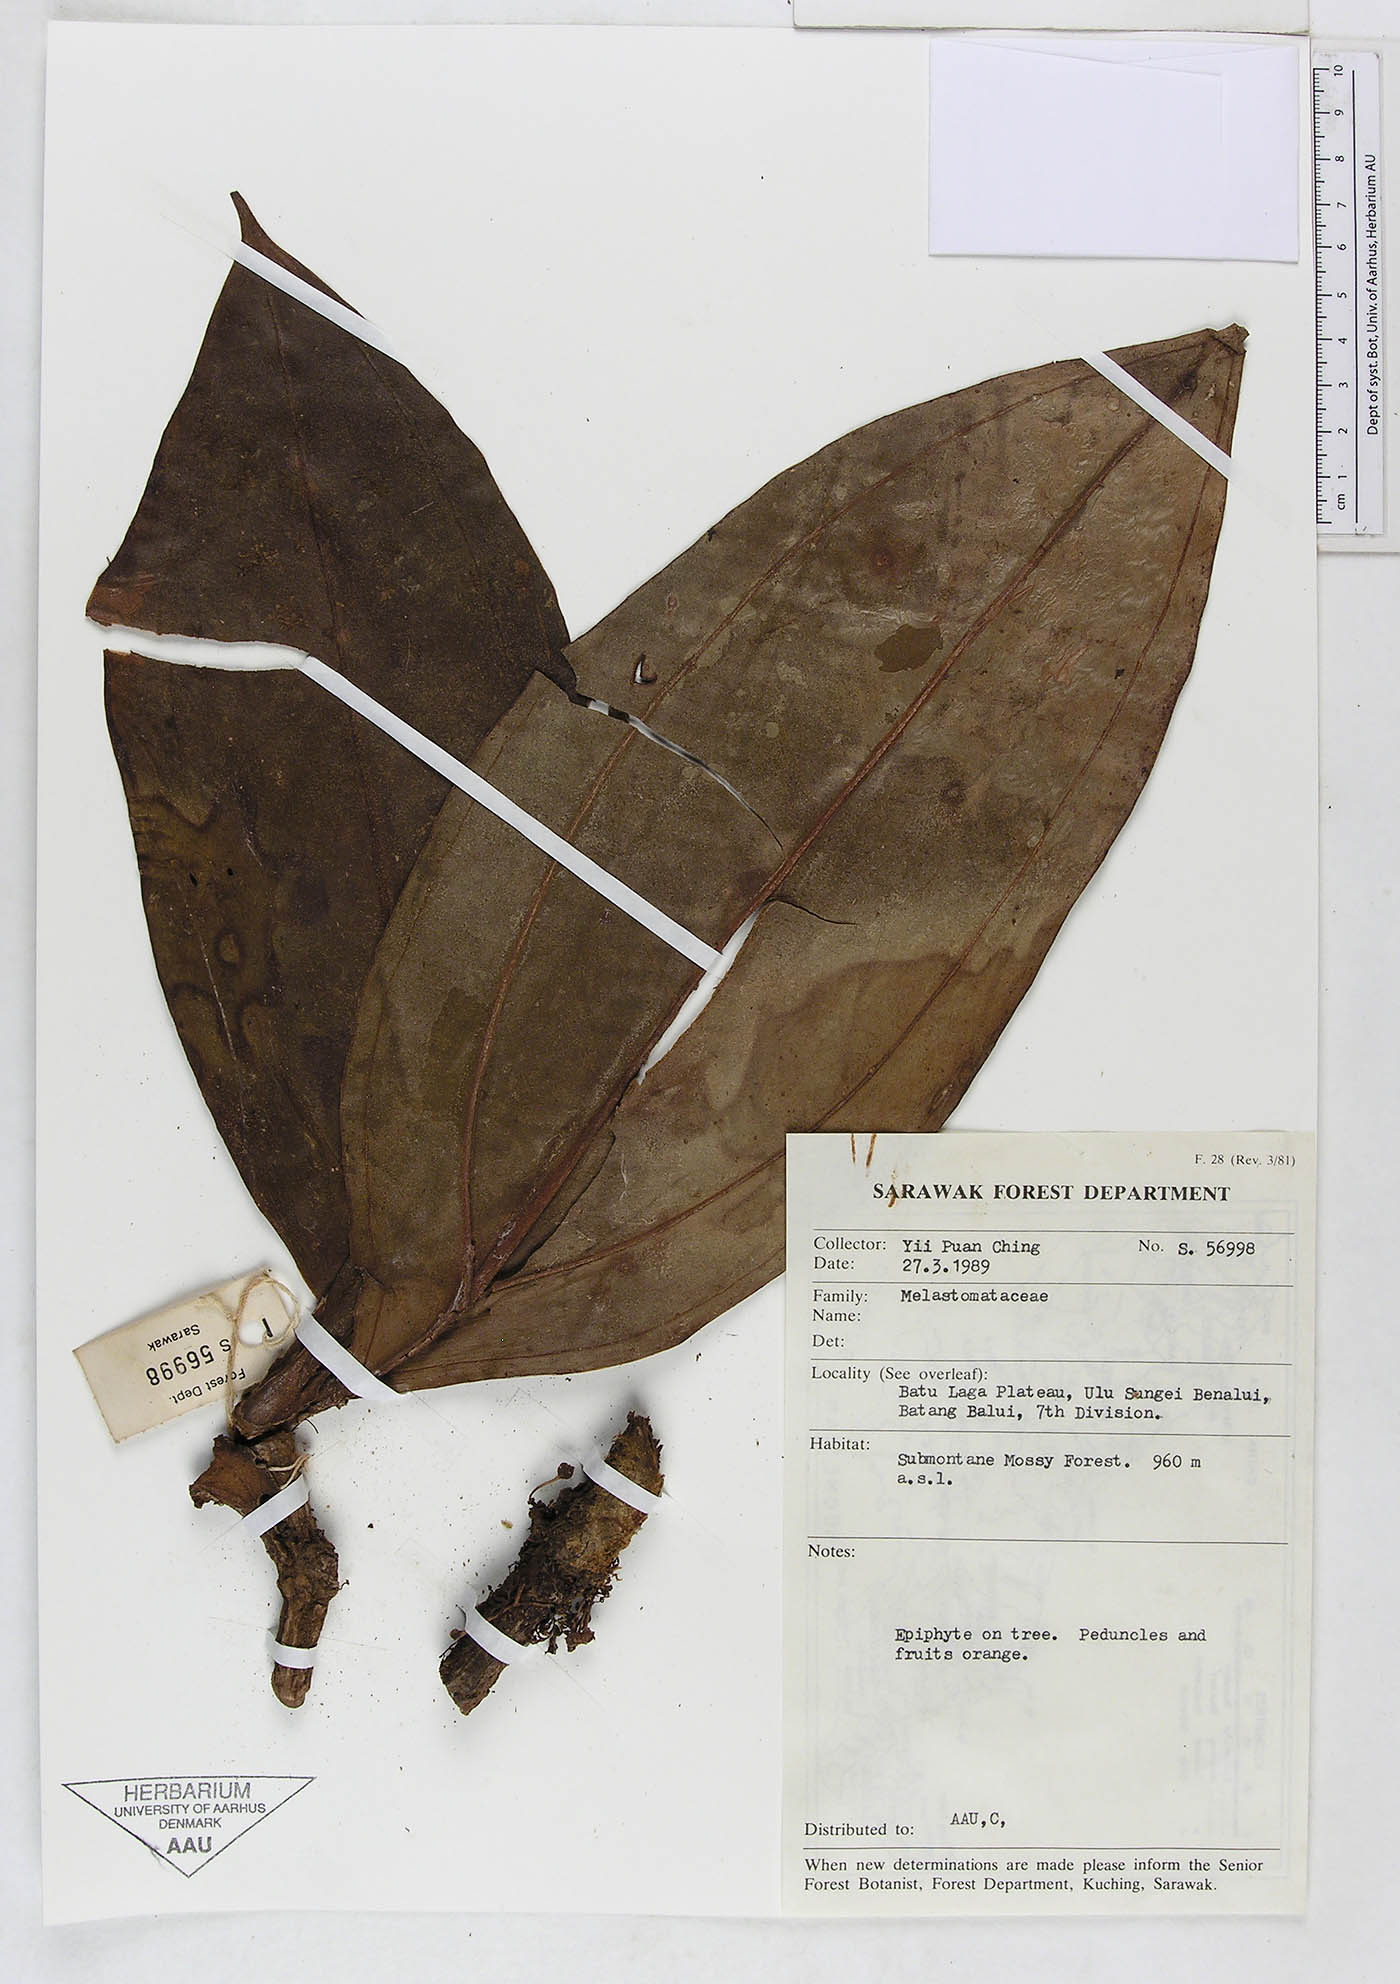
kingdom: Plantae
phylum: Tracheophyta
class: Magnoliopsida
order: Myrtales
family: Melastomataceae
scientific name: Melastomataceae
